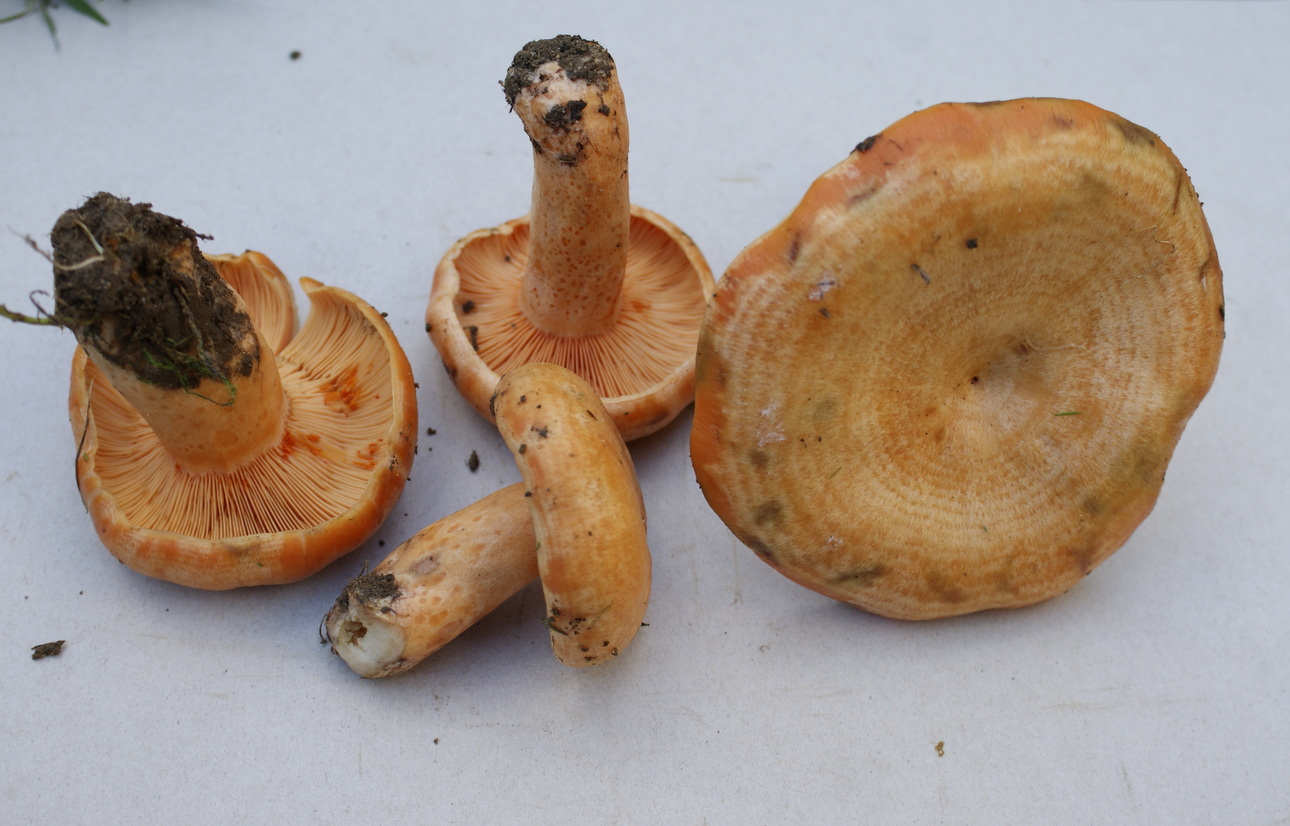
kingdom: Fungi
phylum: Basidiomycota
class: Agaricomycetes
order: Russulales
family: Russulaceae
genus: Lactarius
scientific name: Lactarius deterrimus
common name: gran-mælkehat
